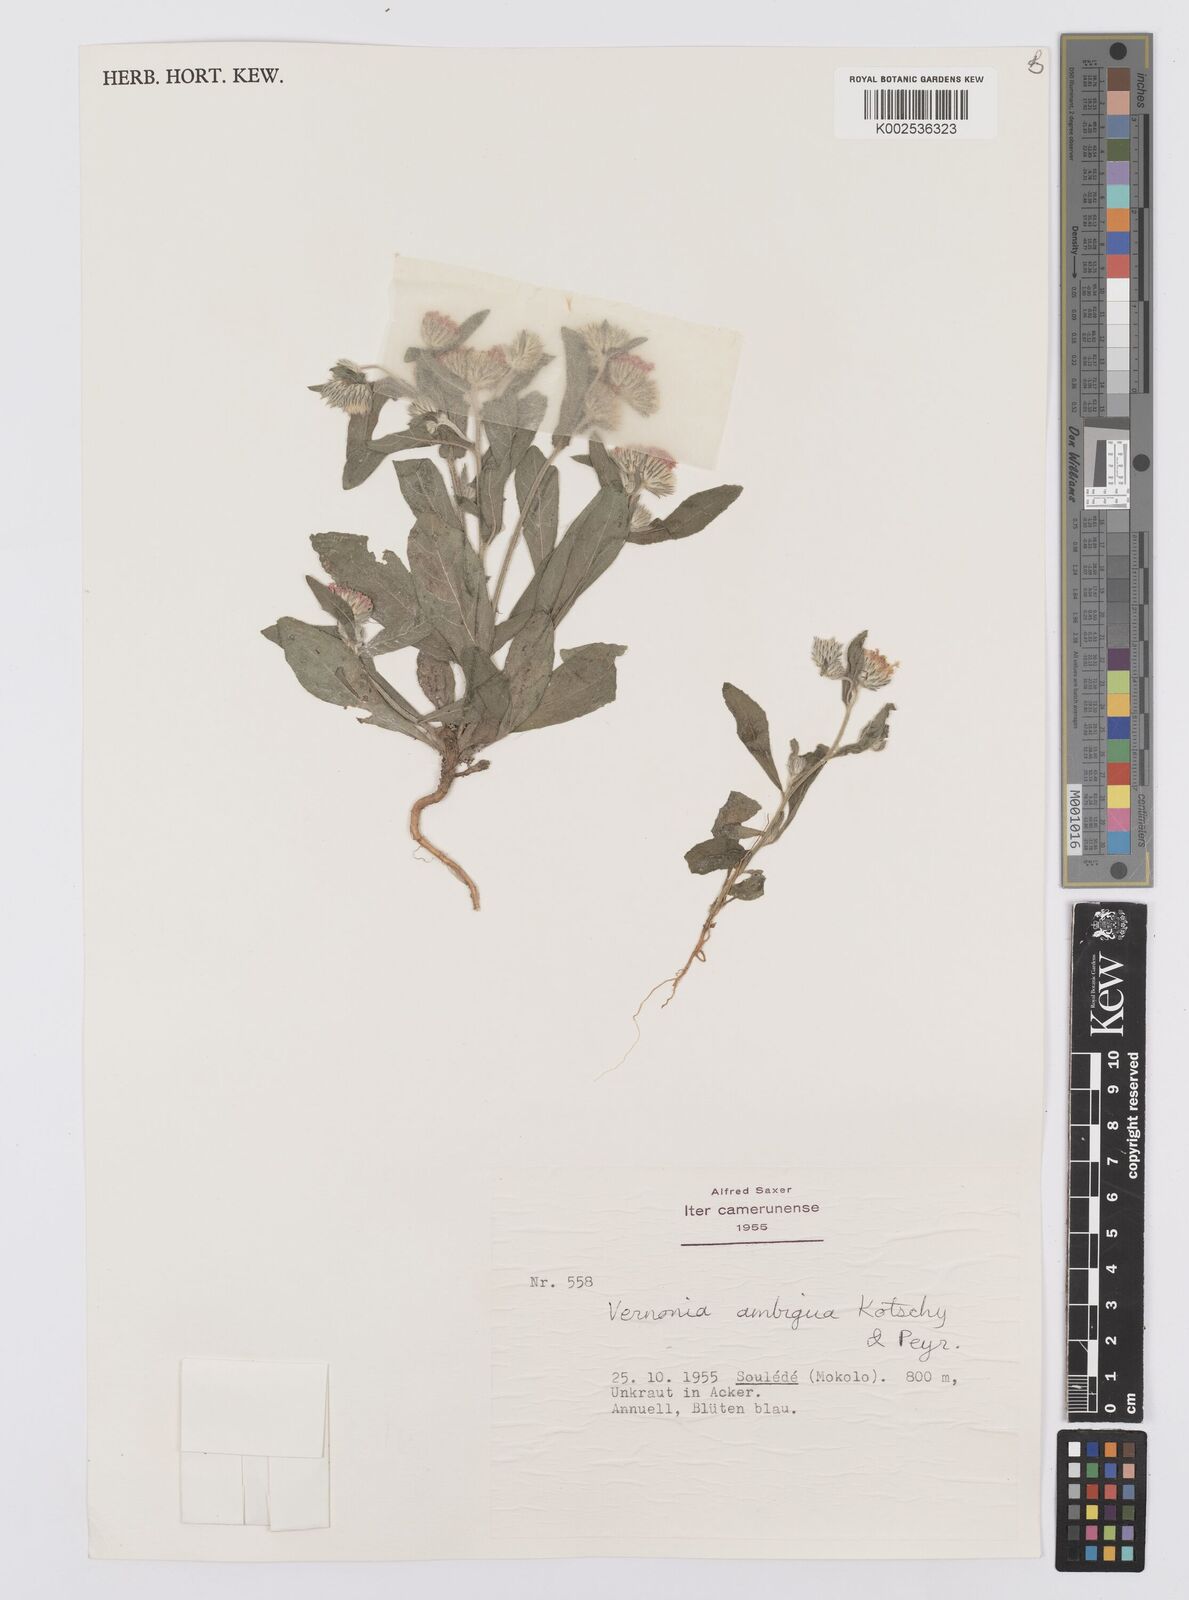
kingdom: Plantae
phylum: Tracheophyta
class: Magnoliopsida
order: Asterales
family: Asteraceae
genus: Vernoniastrum
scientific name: Vernoniastrum ambiguum
